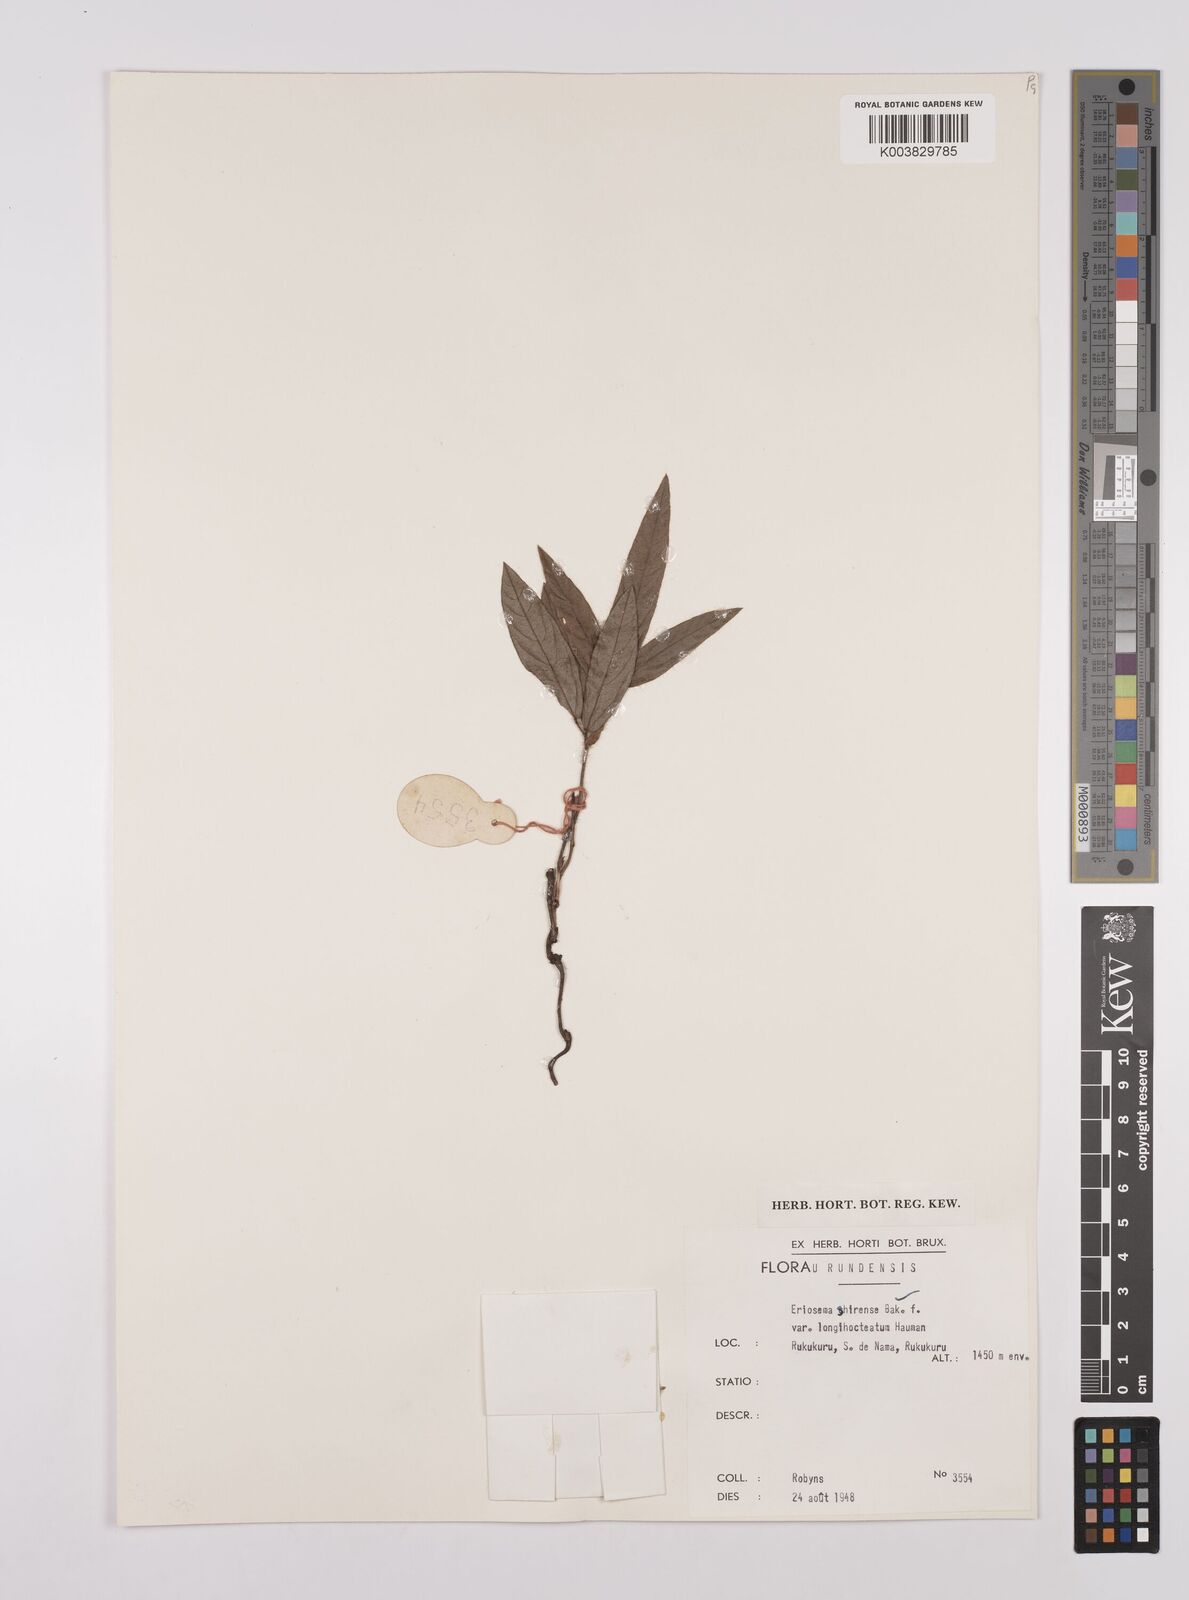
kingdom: Plantae
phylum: Tracheophyta
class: Magnoliopsida
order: Fabales
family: Fabaceae
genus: Eriosema
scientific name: Eriosema shirense
